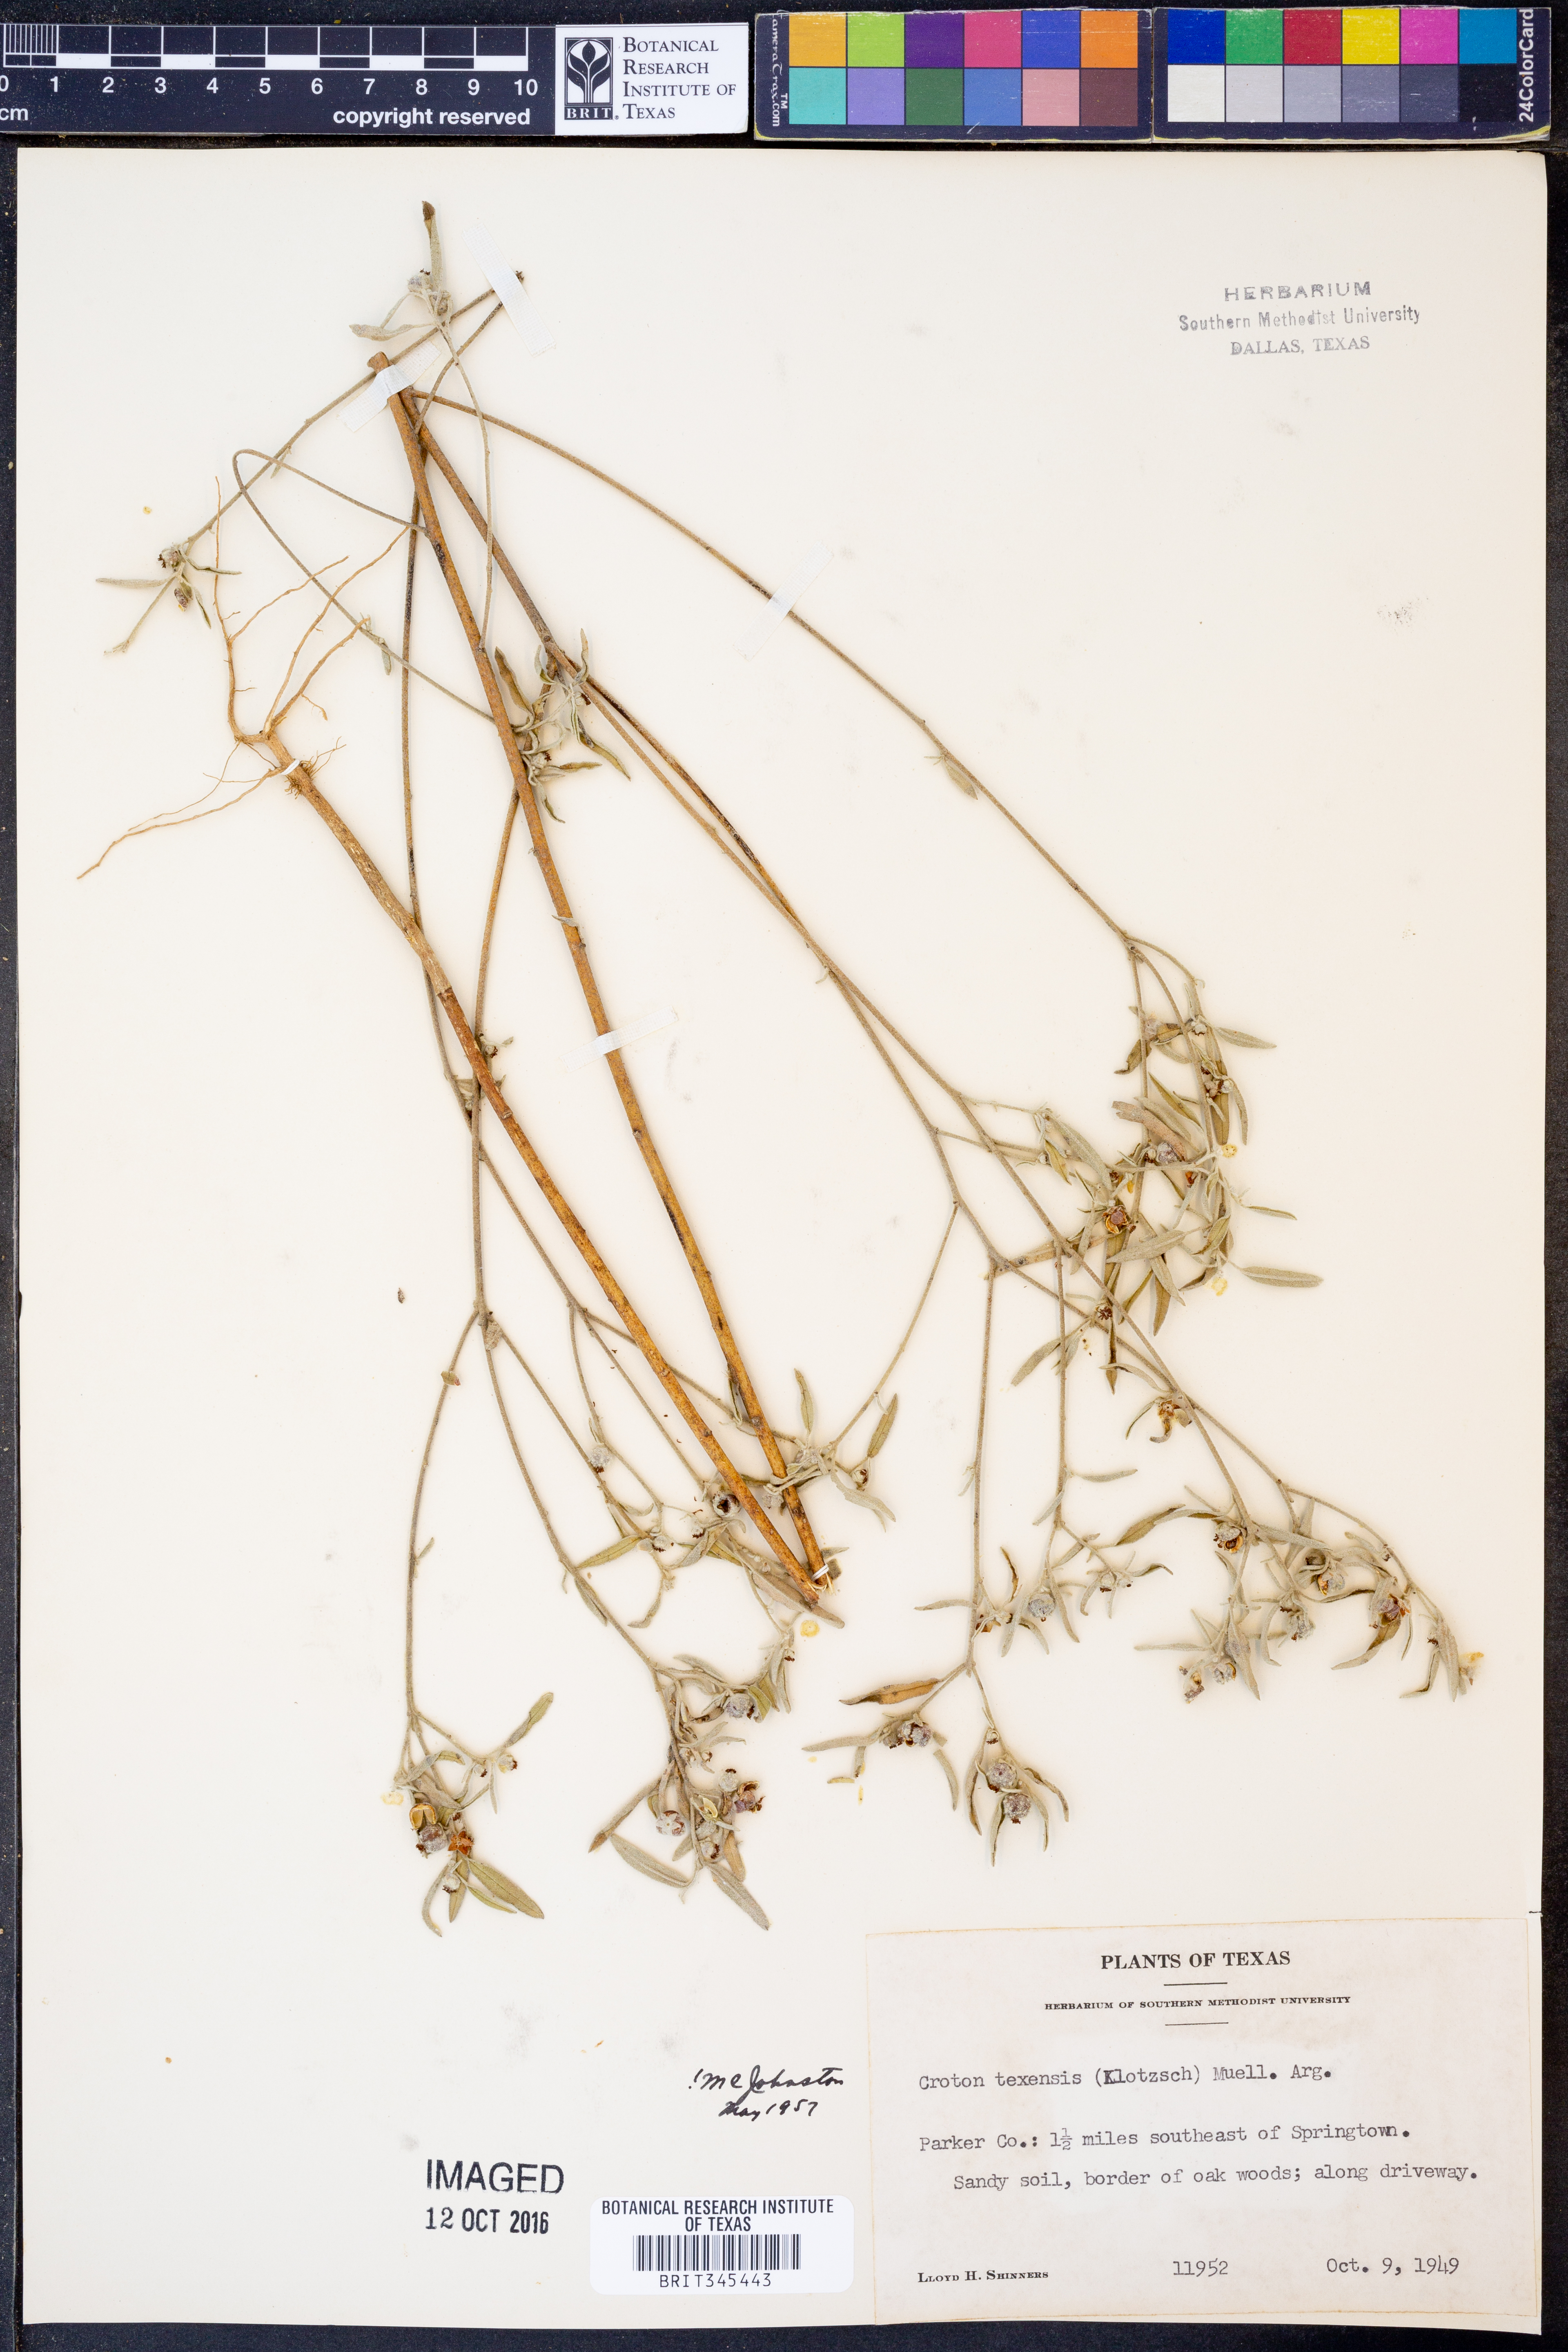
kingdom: Plantae
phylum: Tracheophyta
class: Magnoliopsida
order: Malpighiales
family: Euphorbiaceae
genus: Croton
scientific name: Croton texensis
